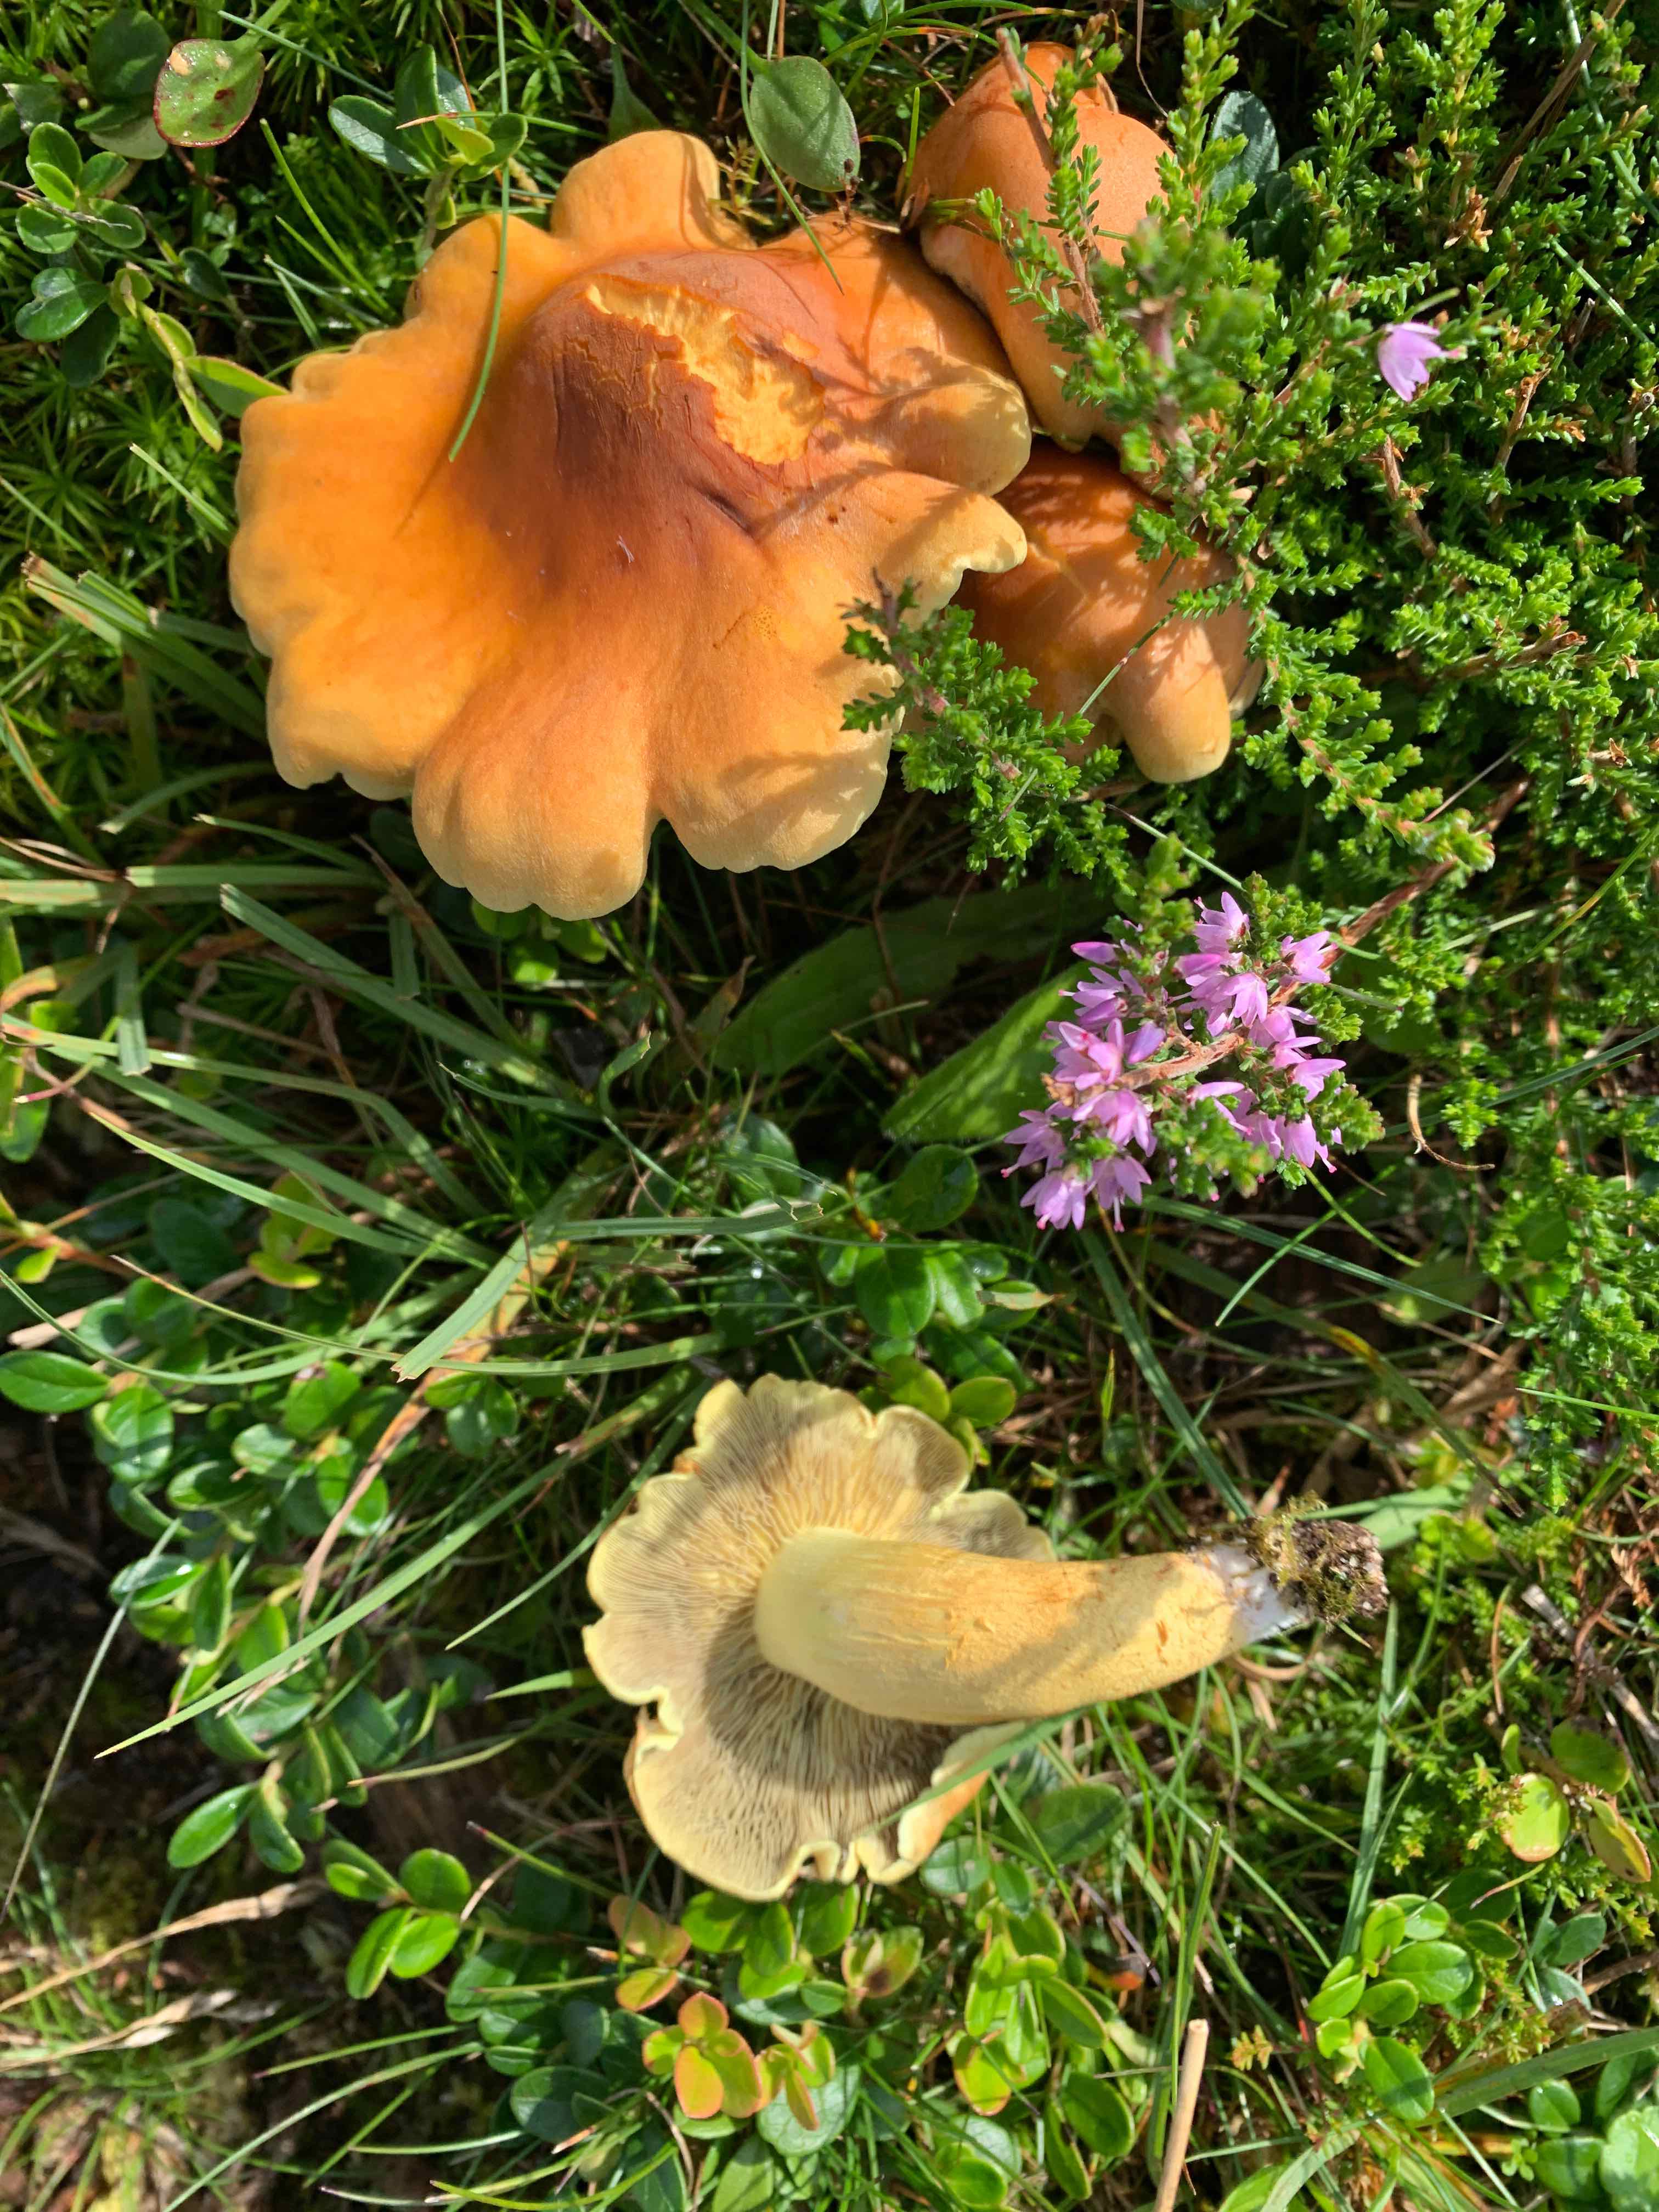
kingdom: Fungi
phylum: Basidiomycota
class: Agaricomycetes
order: Agaricales
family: Strophariaceae
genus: Hypholoma
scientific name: Hypholoma fasciculare
